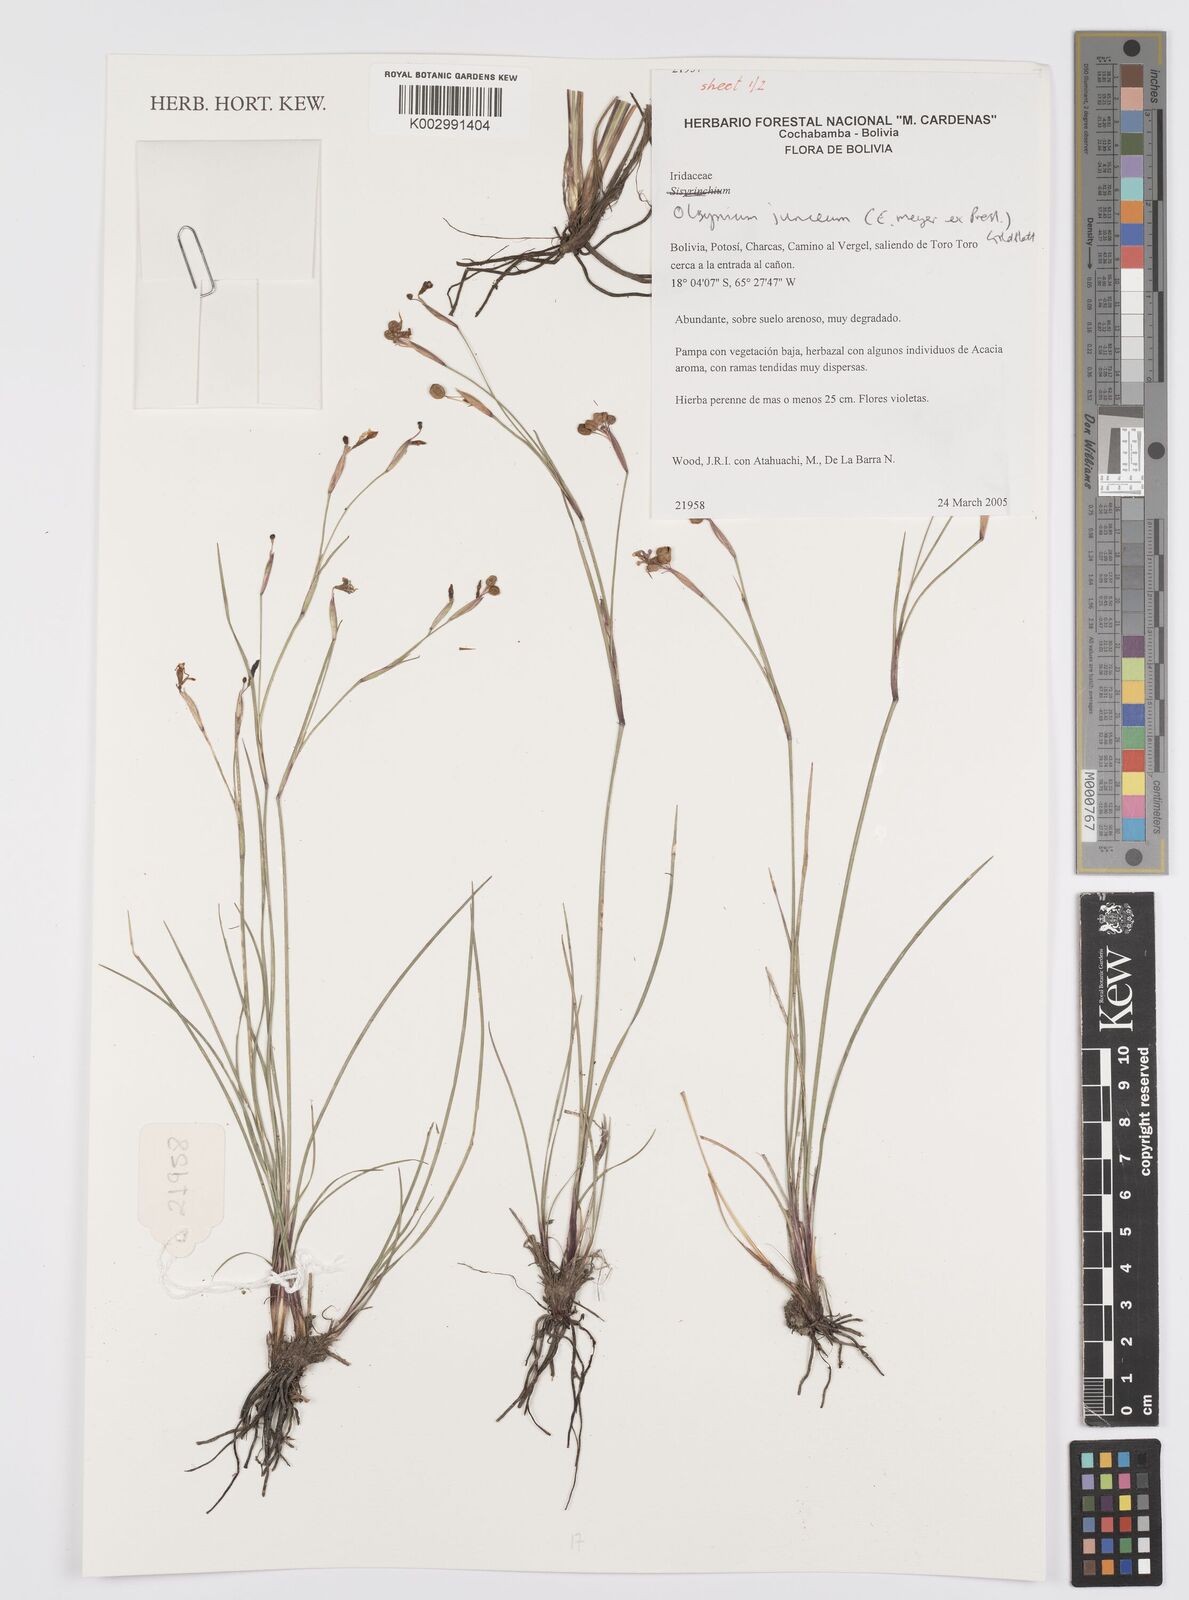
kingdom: Plantae
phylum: Tracheophyta
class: Liliopsida
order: Asparagales
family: Iridaceae
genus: Olsynium
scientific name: Olsynium junceum
